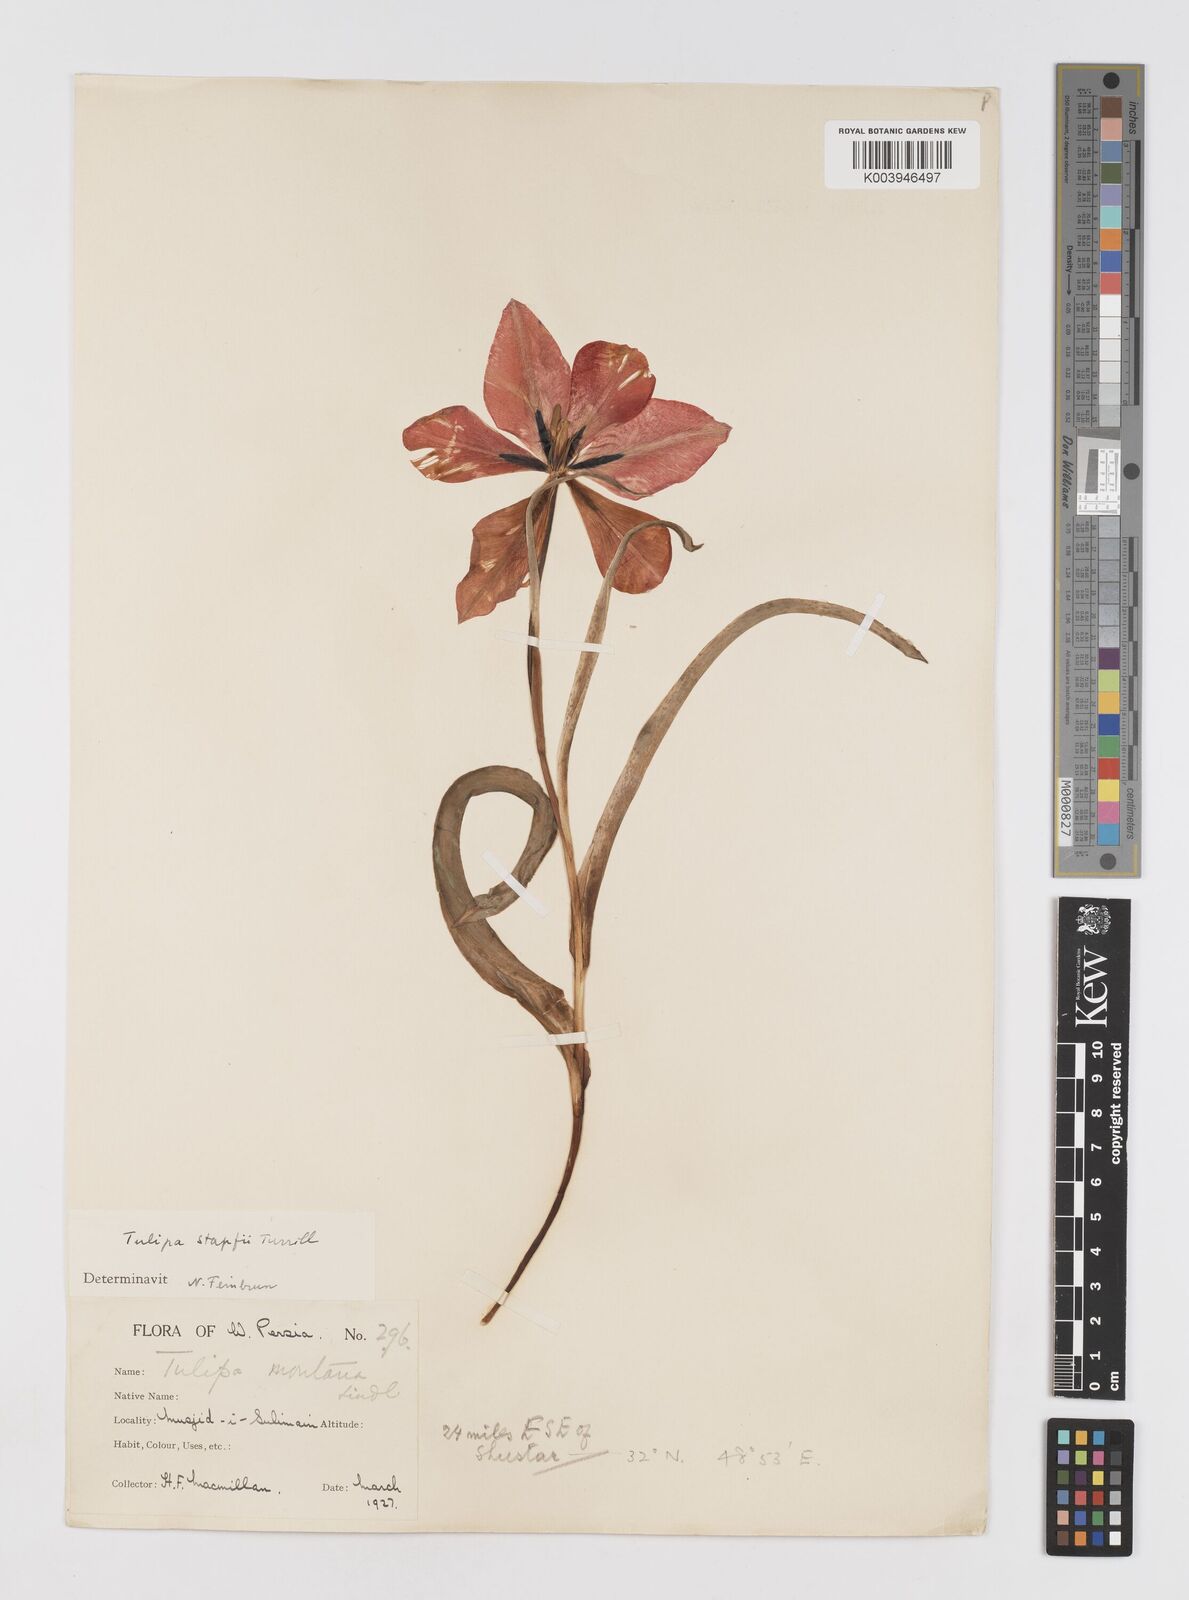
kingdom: Plantae
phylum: Tracheophyta
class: Liliopsida
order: Liliales
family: Liliaceae
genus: Tulipa
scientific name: Tulipa systola
